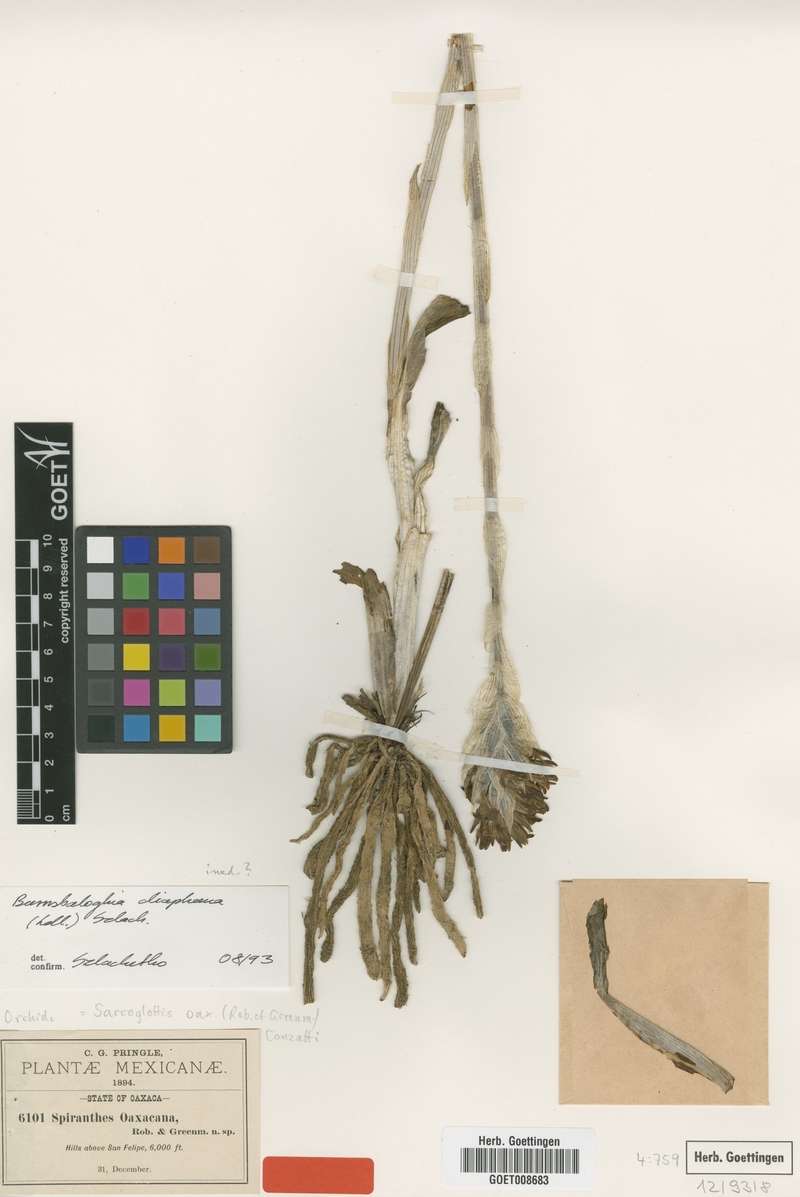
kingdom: Plantae
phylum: Tracheophyta
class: Liliopsida
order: Asparagales
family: Orchidaceae
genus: Deiregyne
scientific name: Deiregyne diaphana
